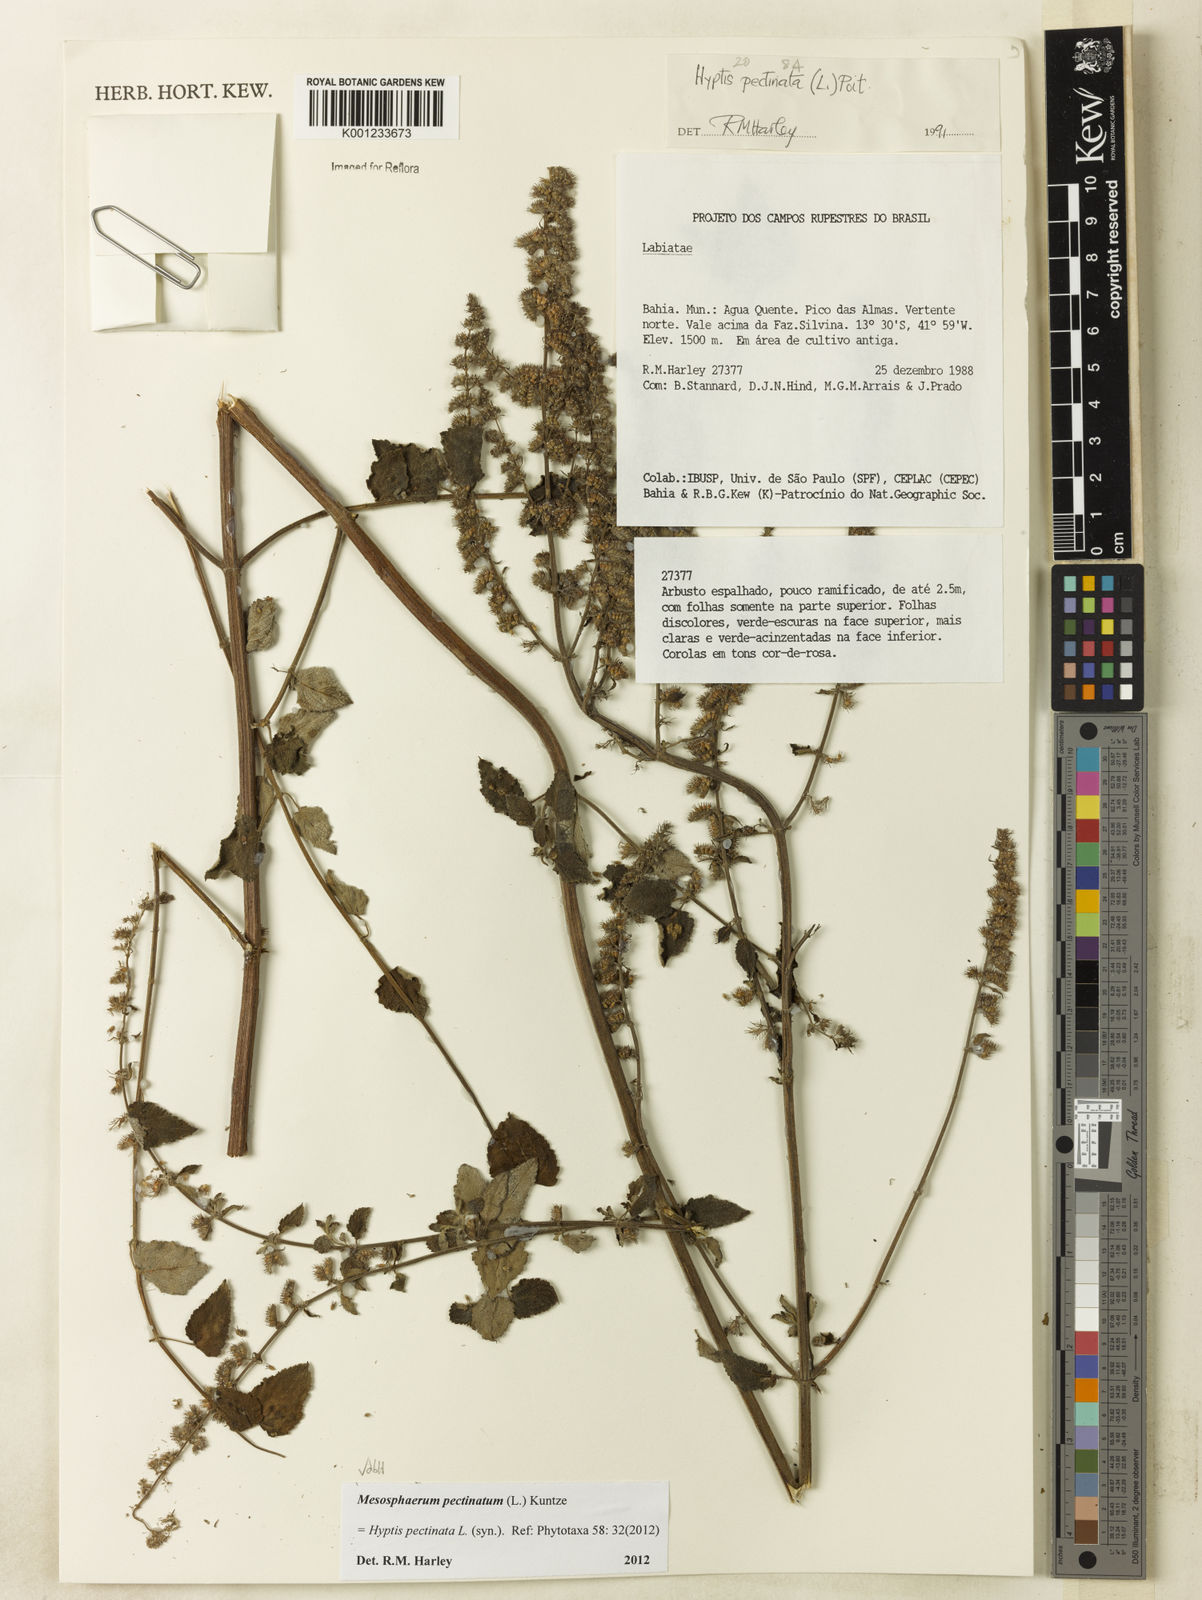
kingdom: Plantae
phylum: Tracheophyta
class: Magnoliopsida
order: Lamiales
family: Lamiaceae
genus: Mesosphaerum
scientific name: Mesosphaerum pectinatum
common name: Comb hyptis
